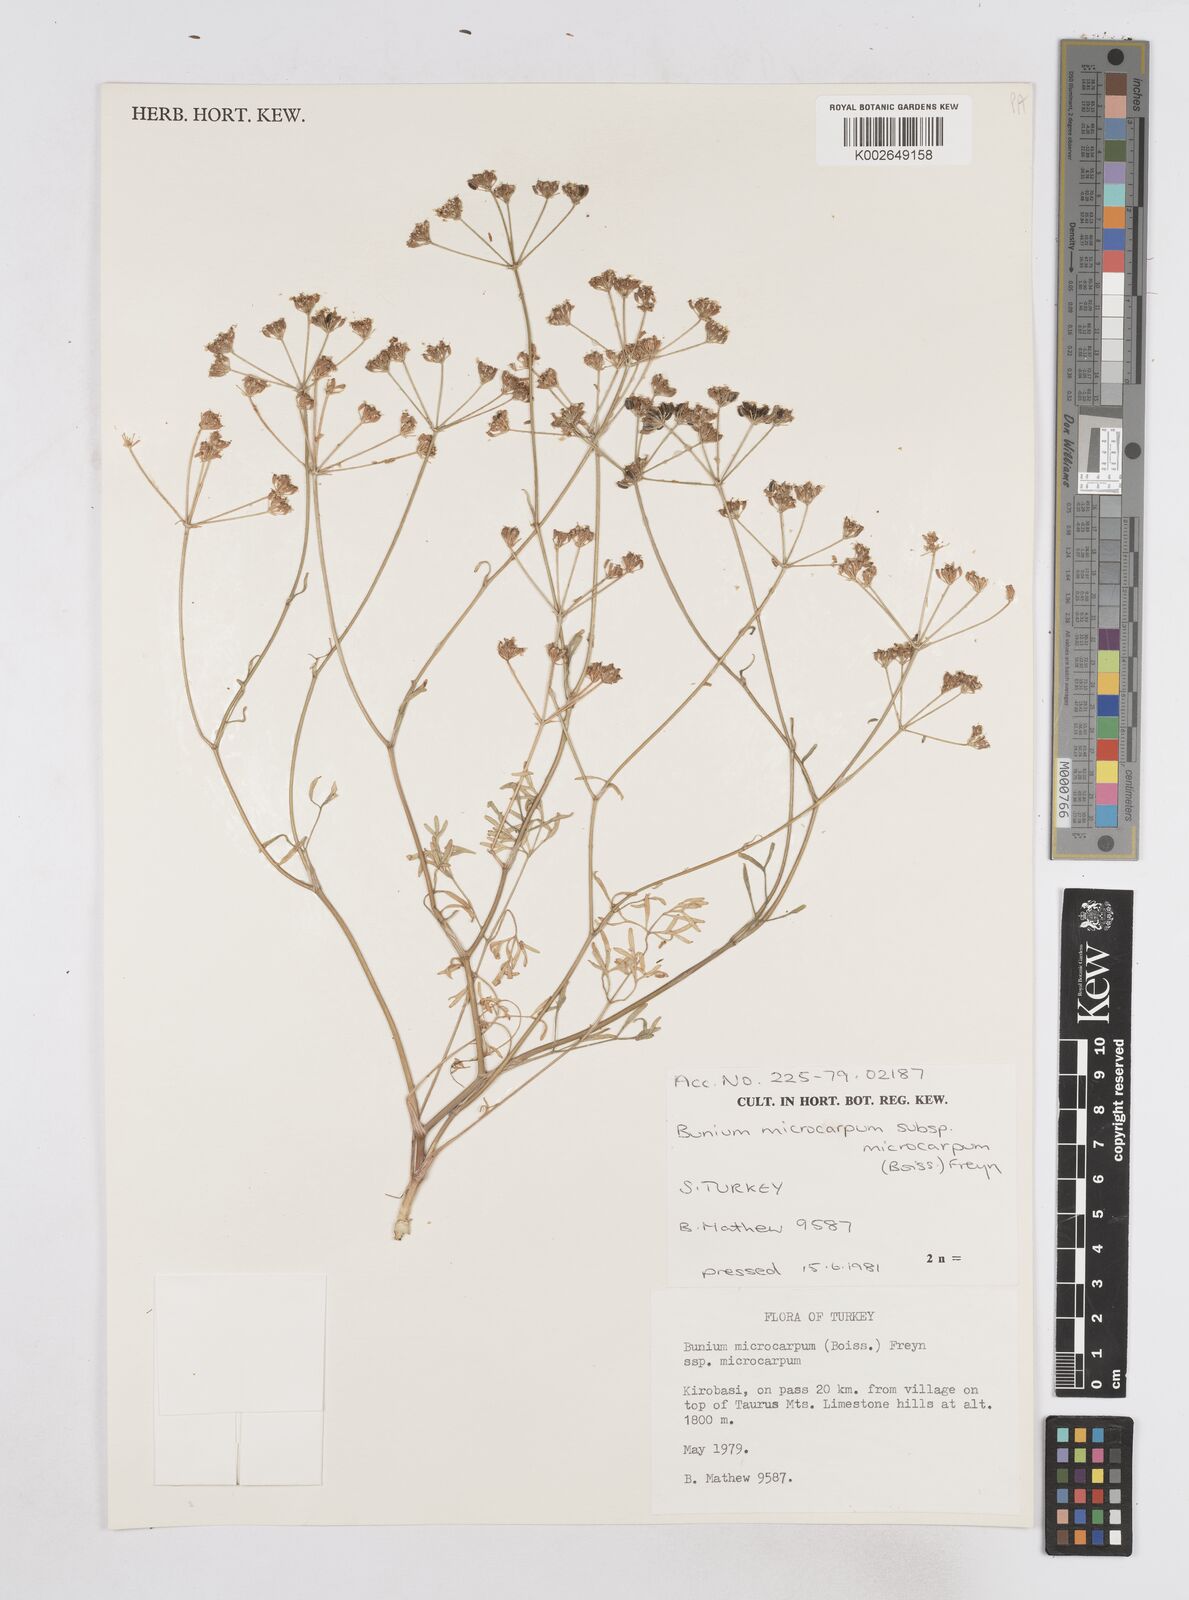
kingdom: Plantae
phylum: Tracheophyta
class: Magnoliopsida
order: Apiales
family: Apiaceae
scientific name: Apiaceae
